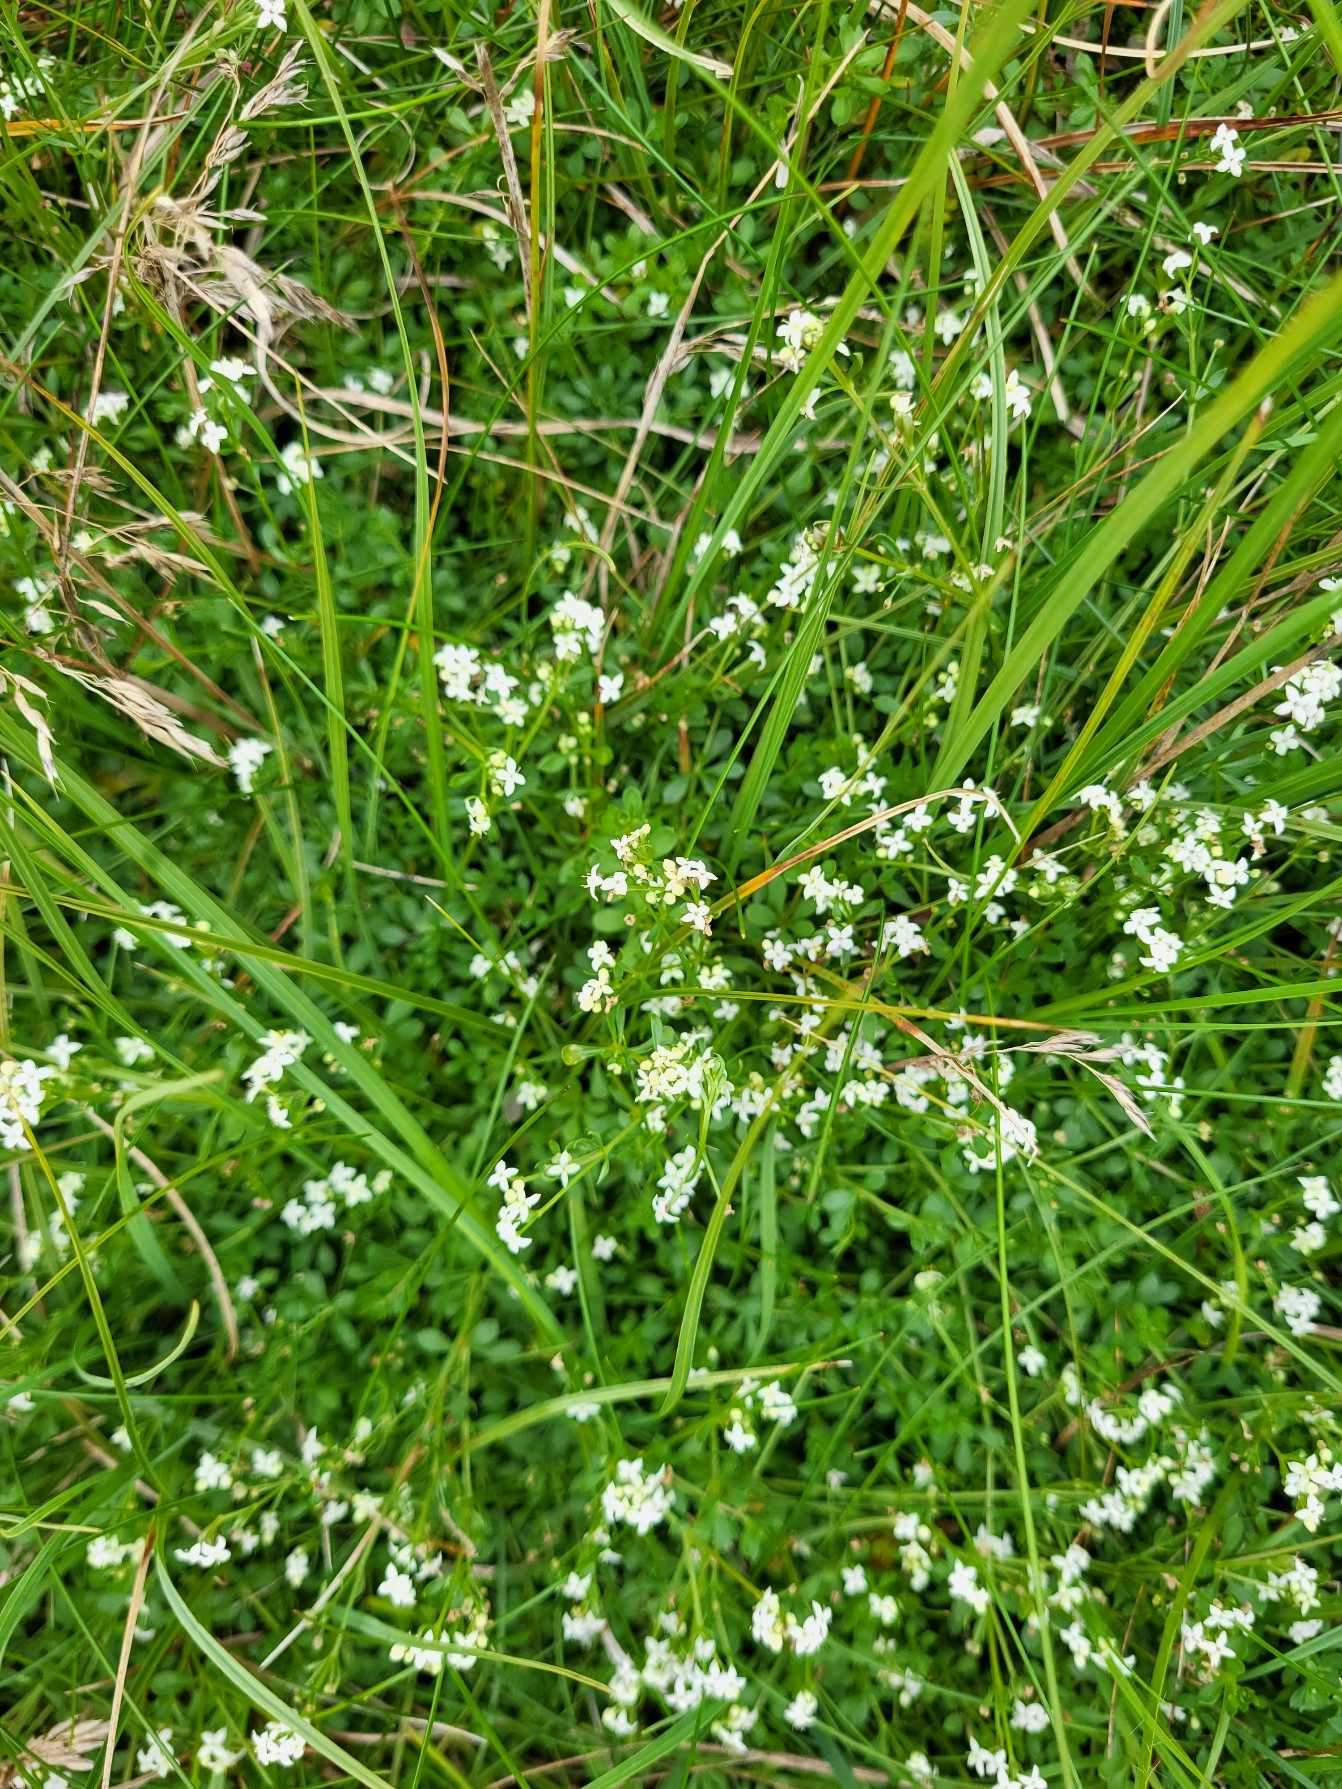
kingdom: Plantae
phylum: Tracheophyta
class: Magnoliopsida
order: Gentianales
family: Rubiaceae
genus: Galium
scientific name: Galium saxatile
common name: Lyng-snerre
